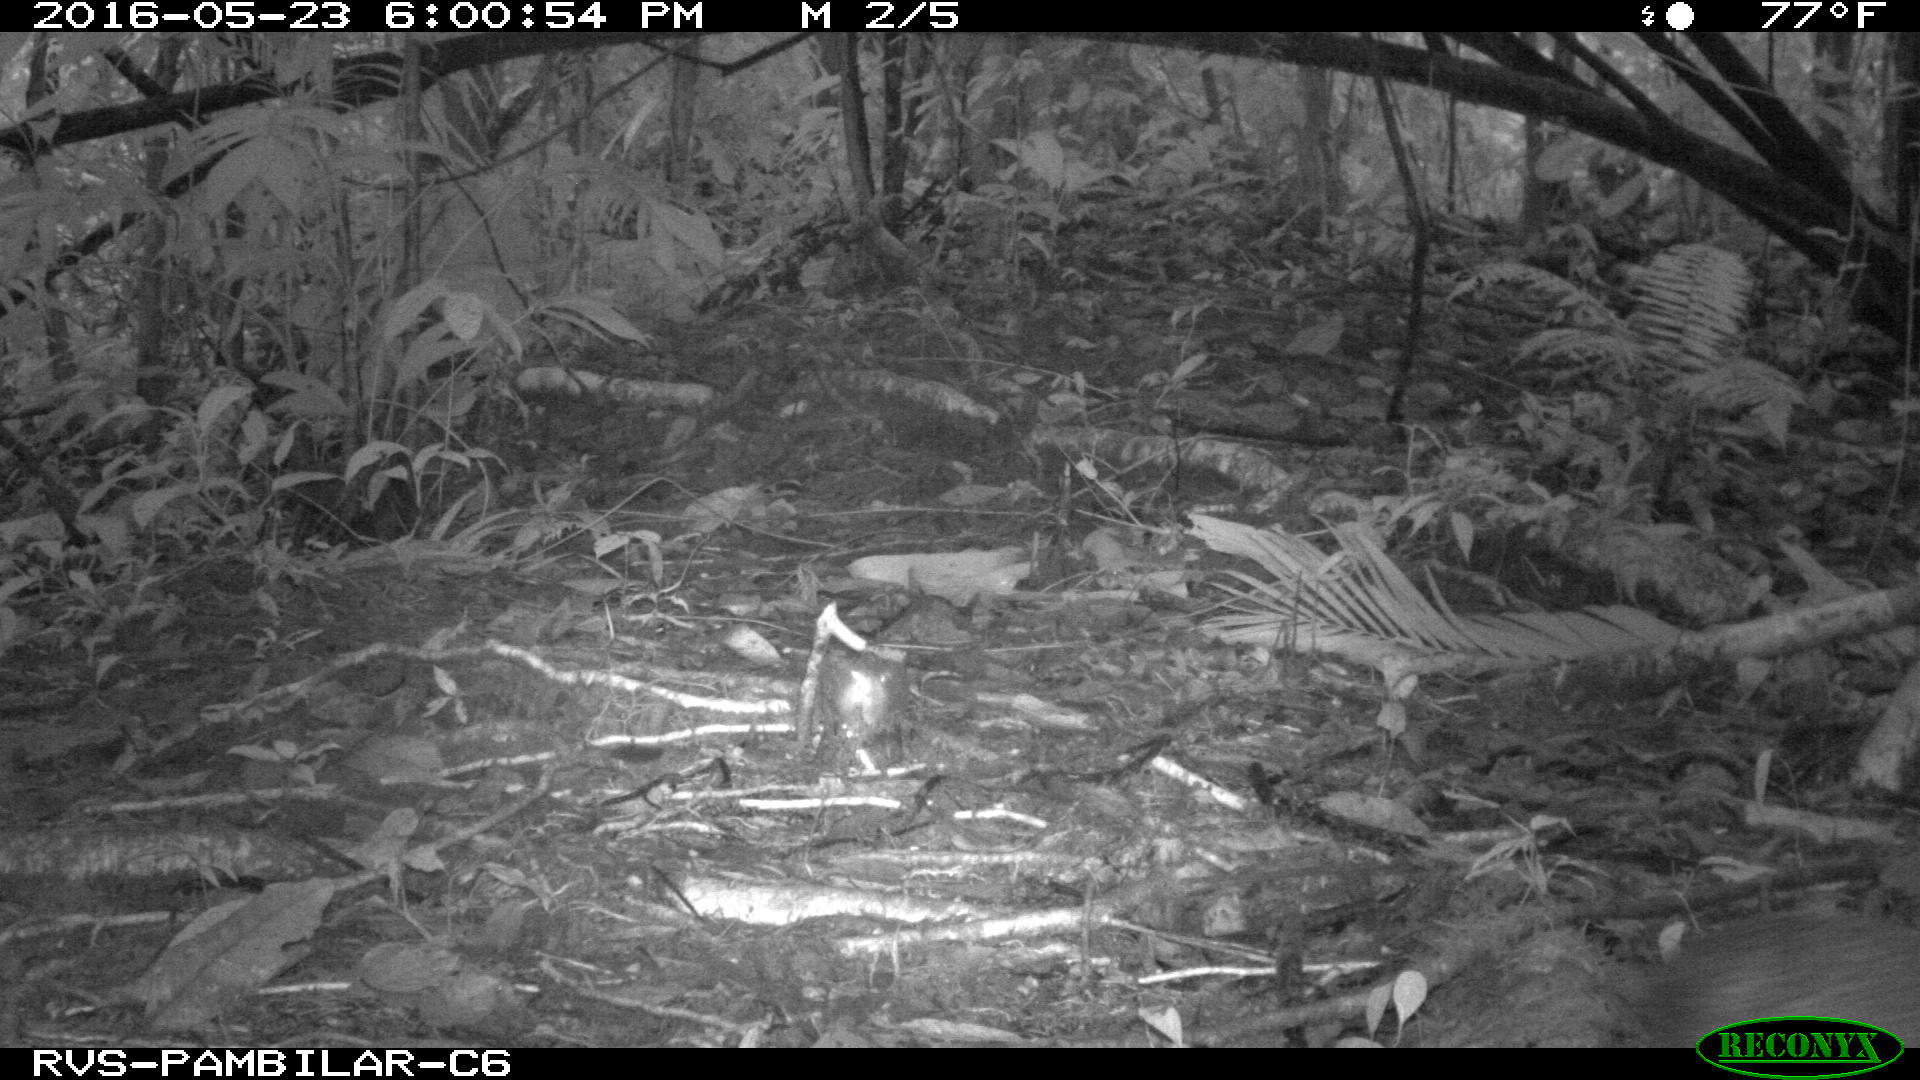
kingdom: Animalia
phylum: Chordata
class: Mammalia
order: Rodentia
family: Dasyproctidae
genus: Dasyprocta
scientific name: Dasyprocta punctata
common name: Central american agouti
